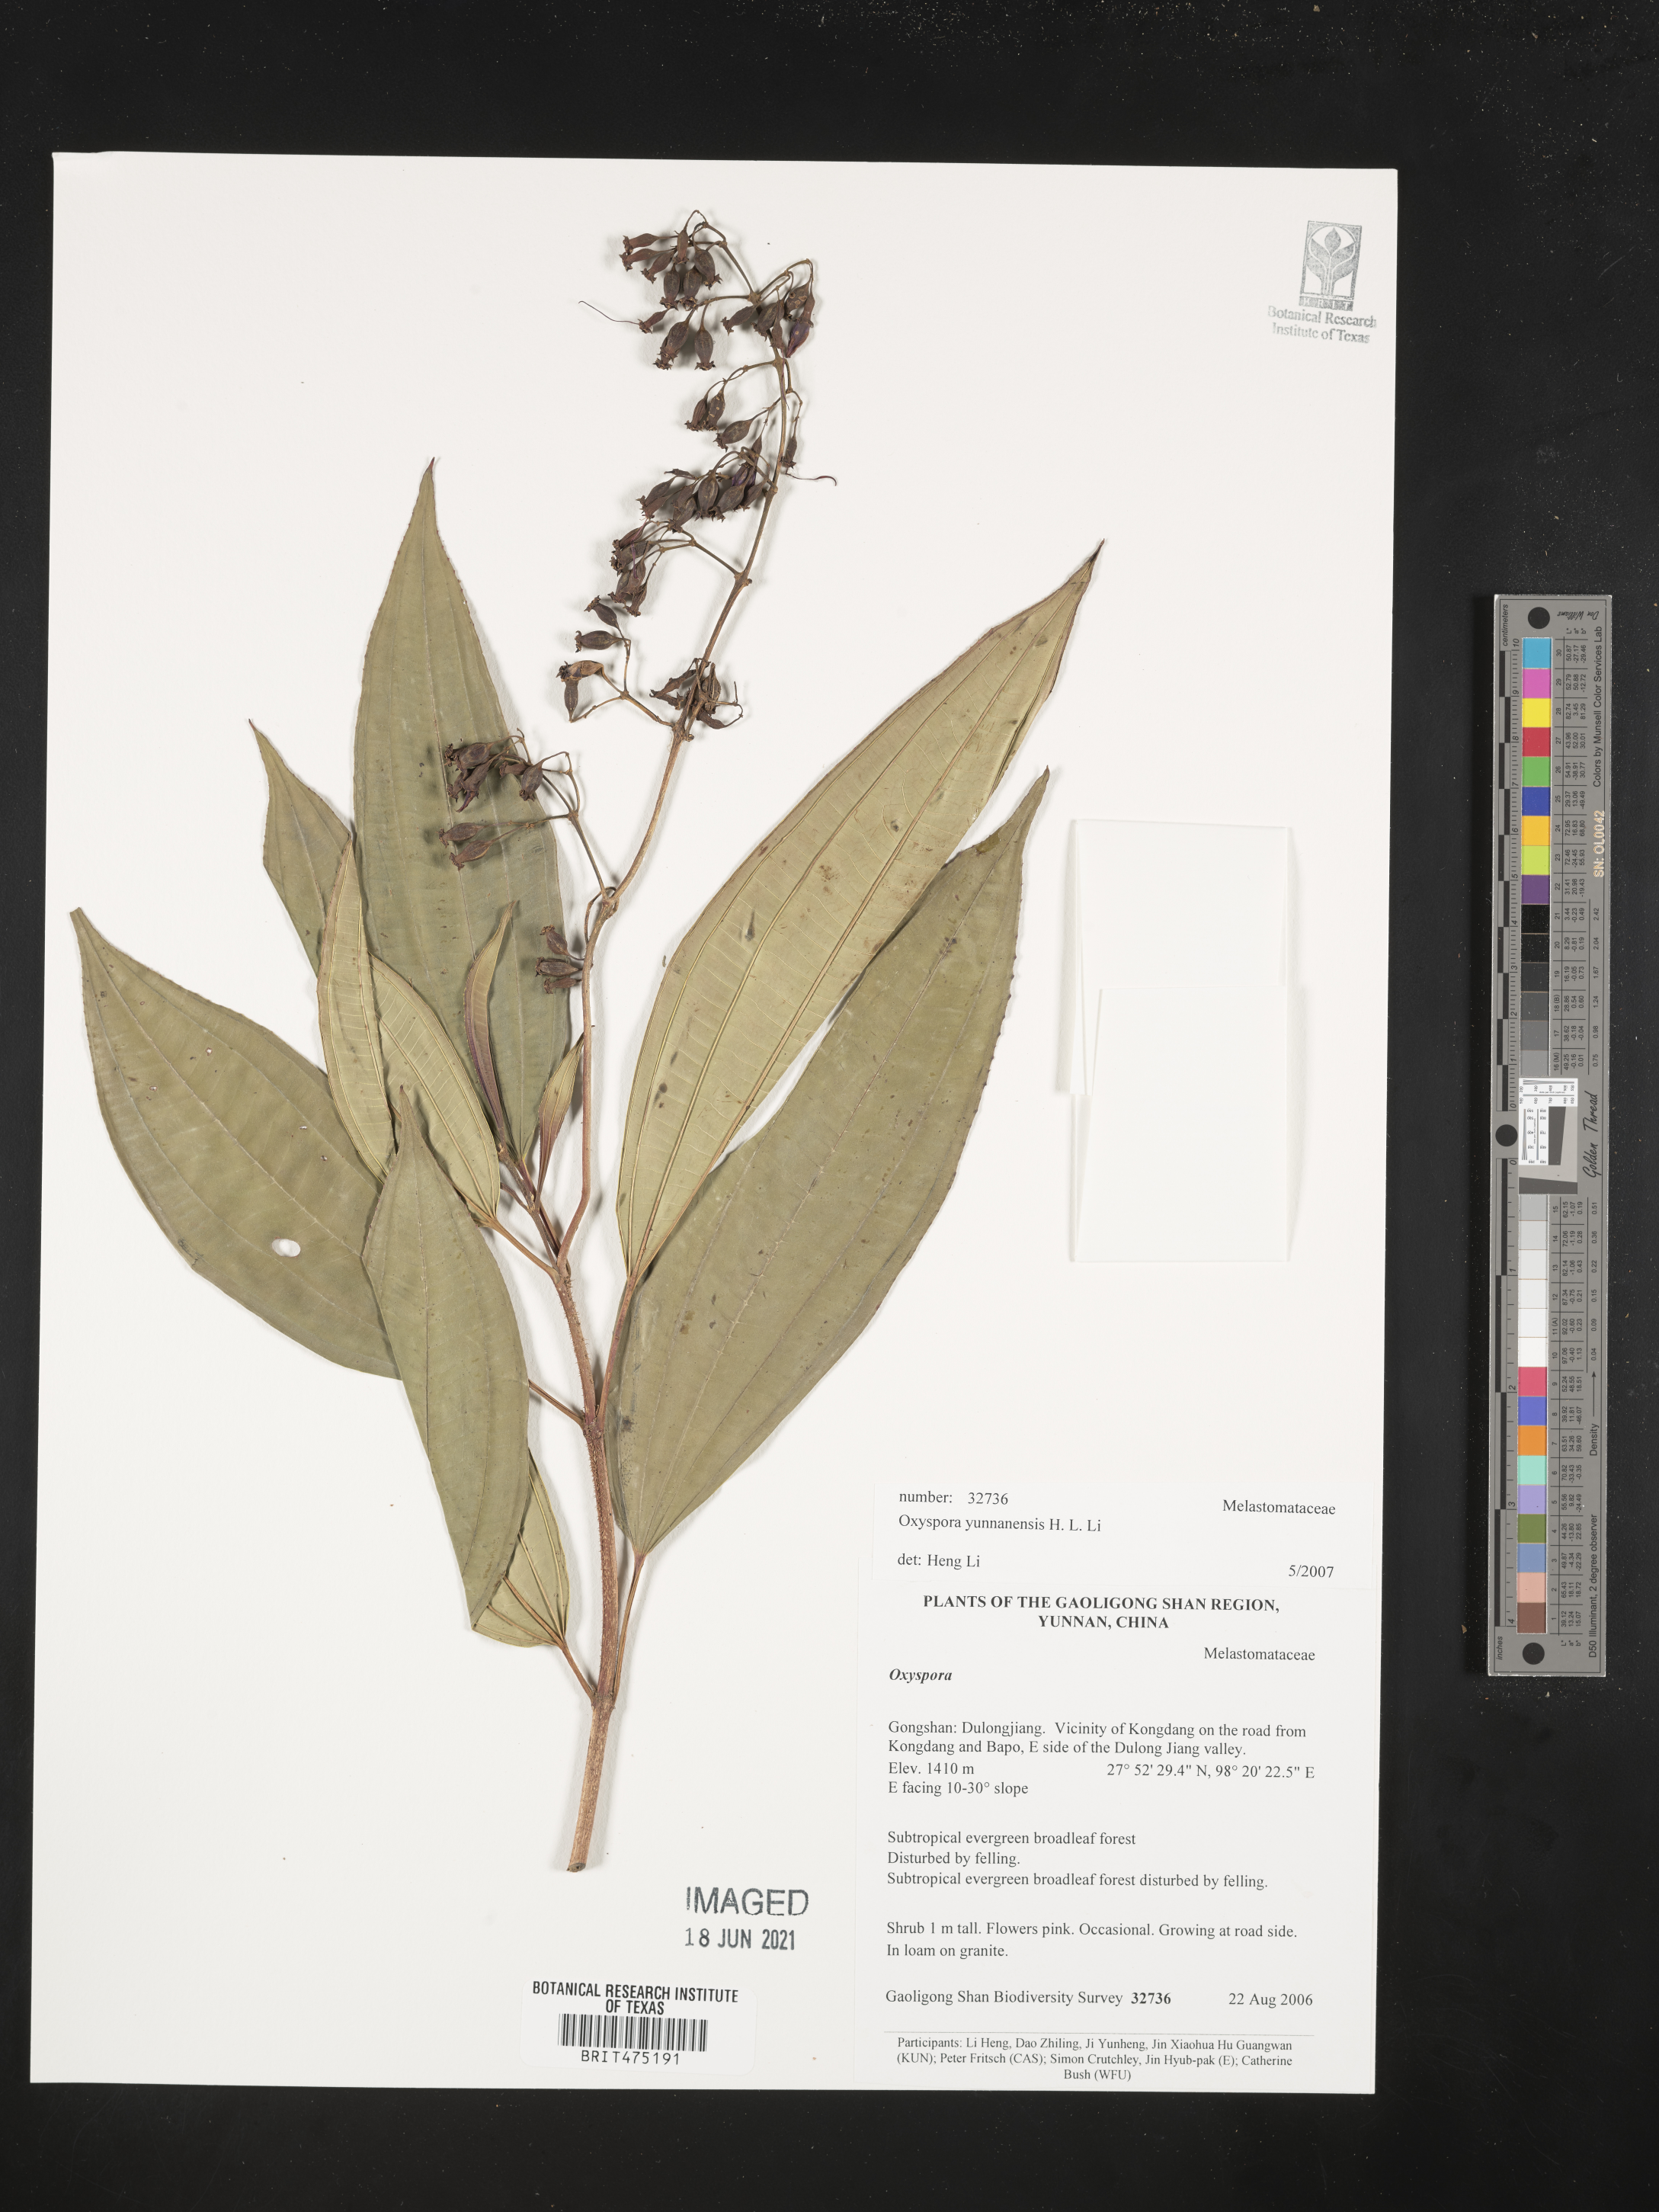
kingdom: Plantae
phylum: Tracheophyta
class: Magnoliopsida
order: Myrtales
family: Melastomataceae
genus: Oxyspora
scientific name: Oxyspora yunnanensis
